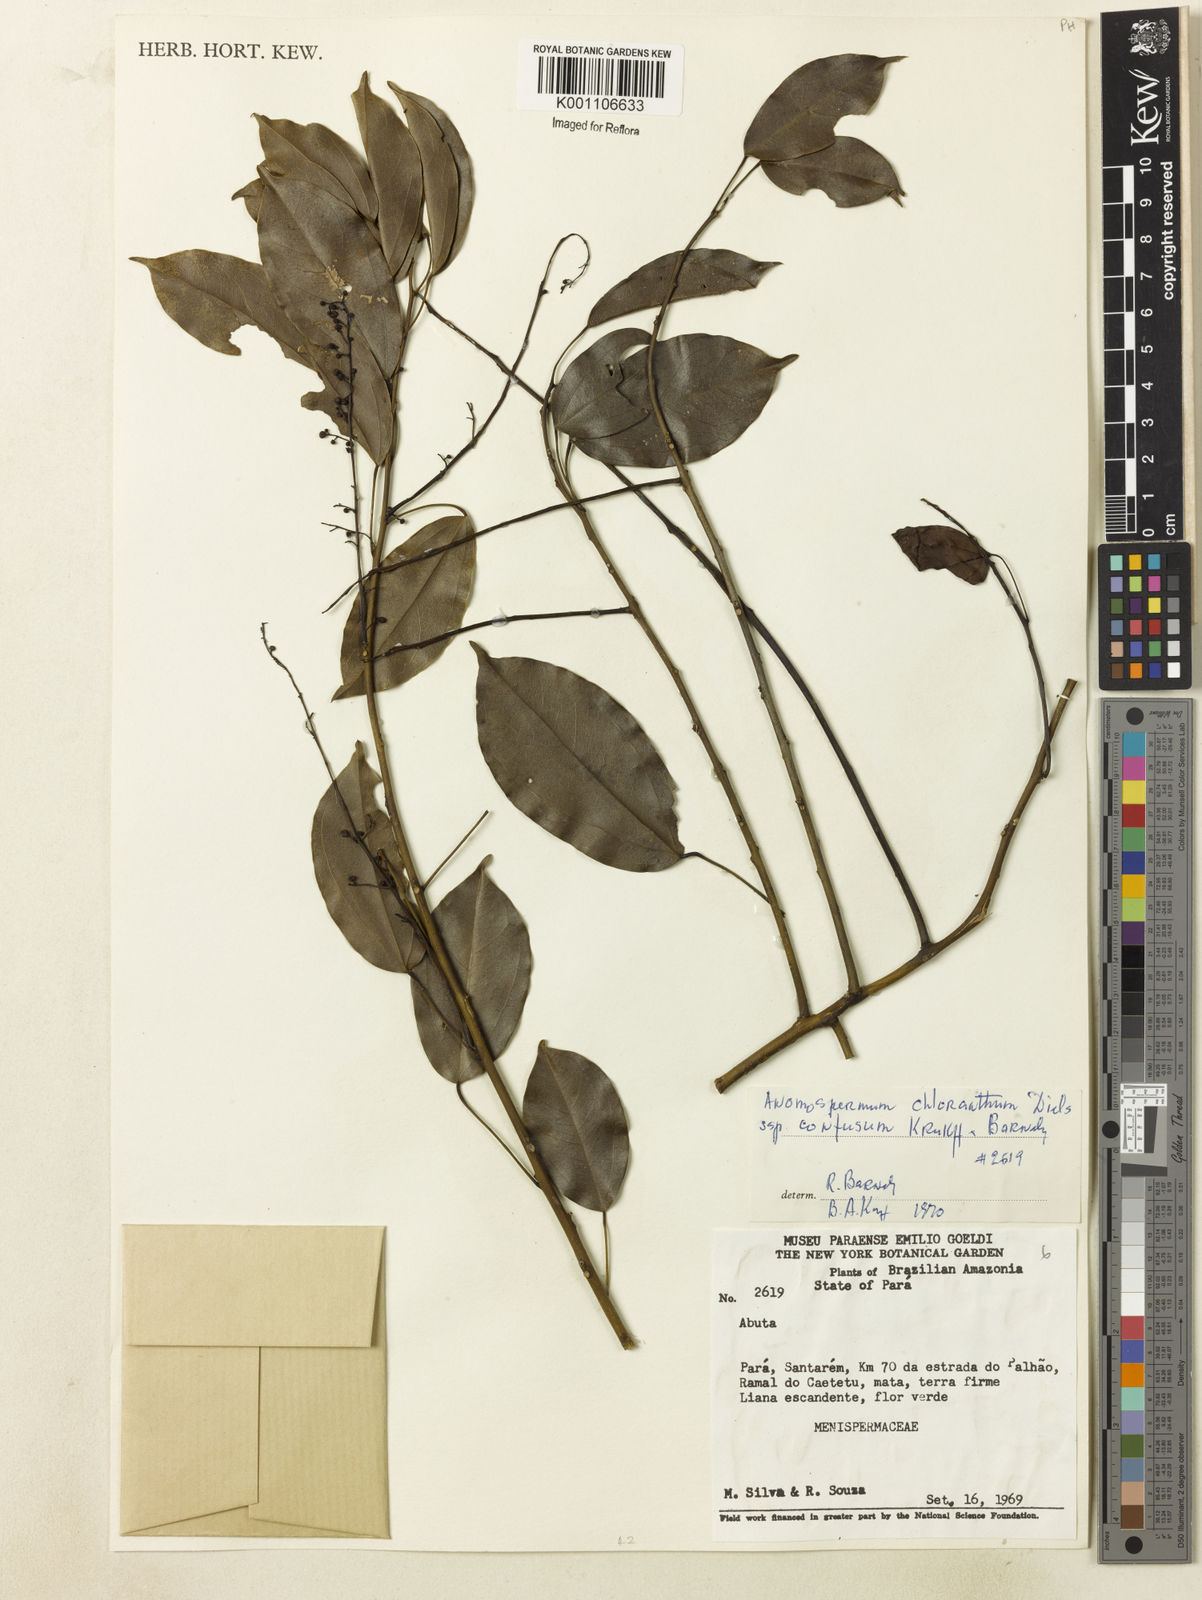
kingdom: Plantae
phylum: Tracheophyta
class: Magnoliopsida
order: Ranunculales
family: Menispermaceae
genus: Anomospermum
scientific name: Anomospermum chloranthum
